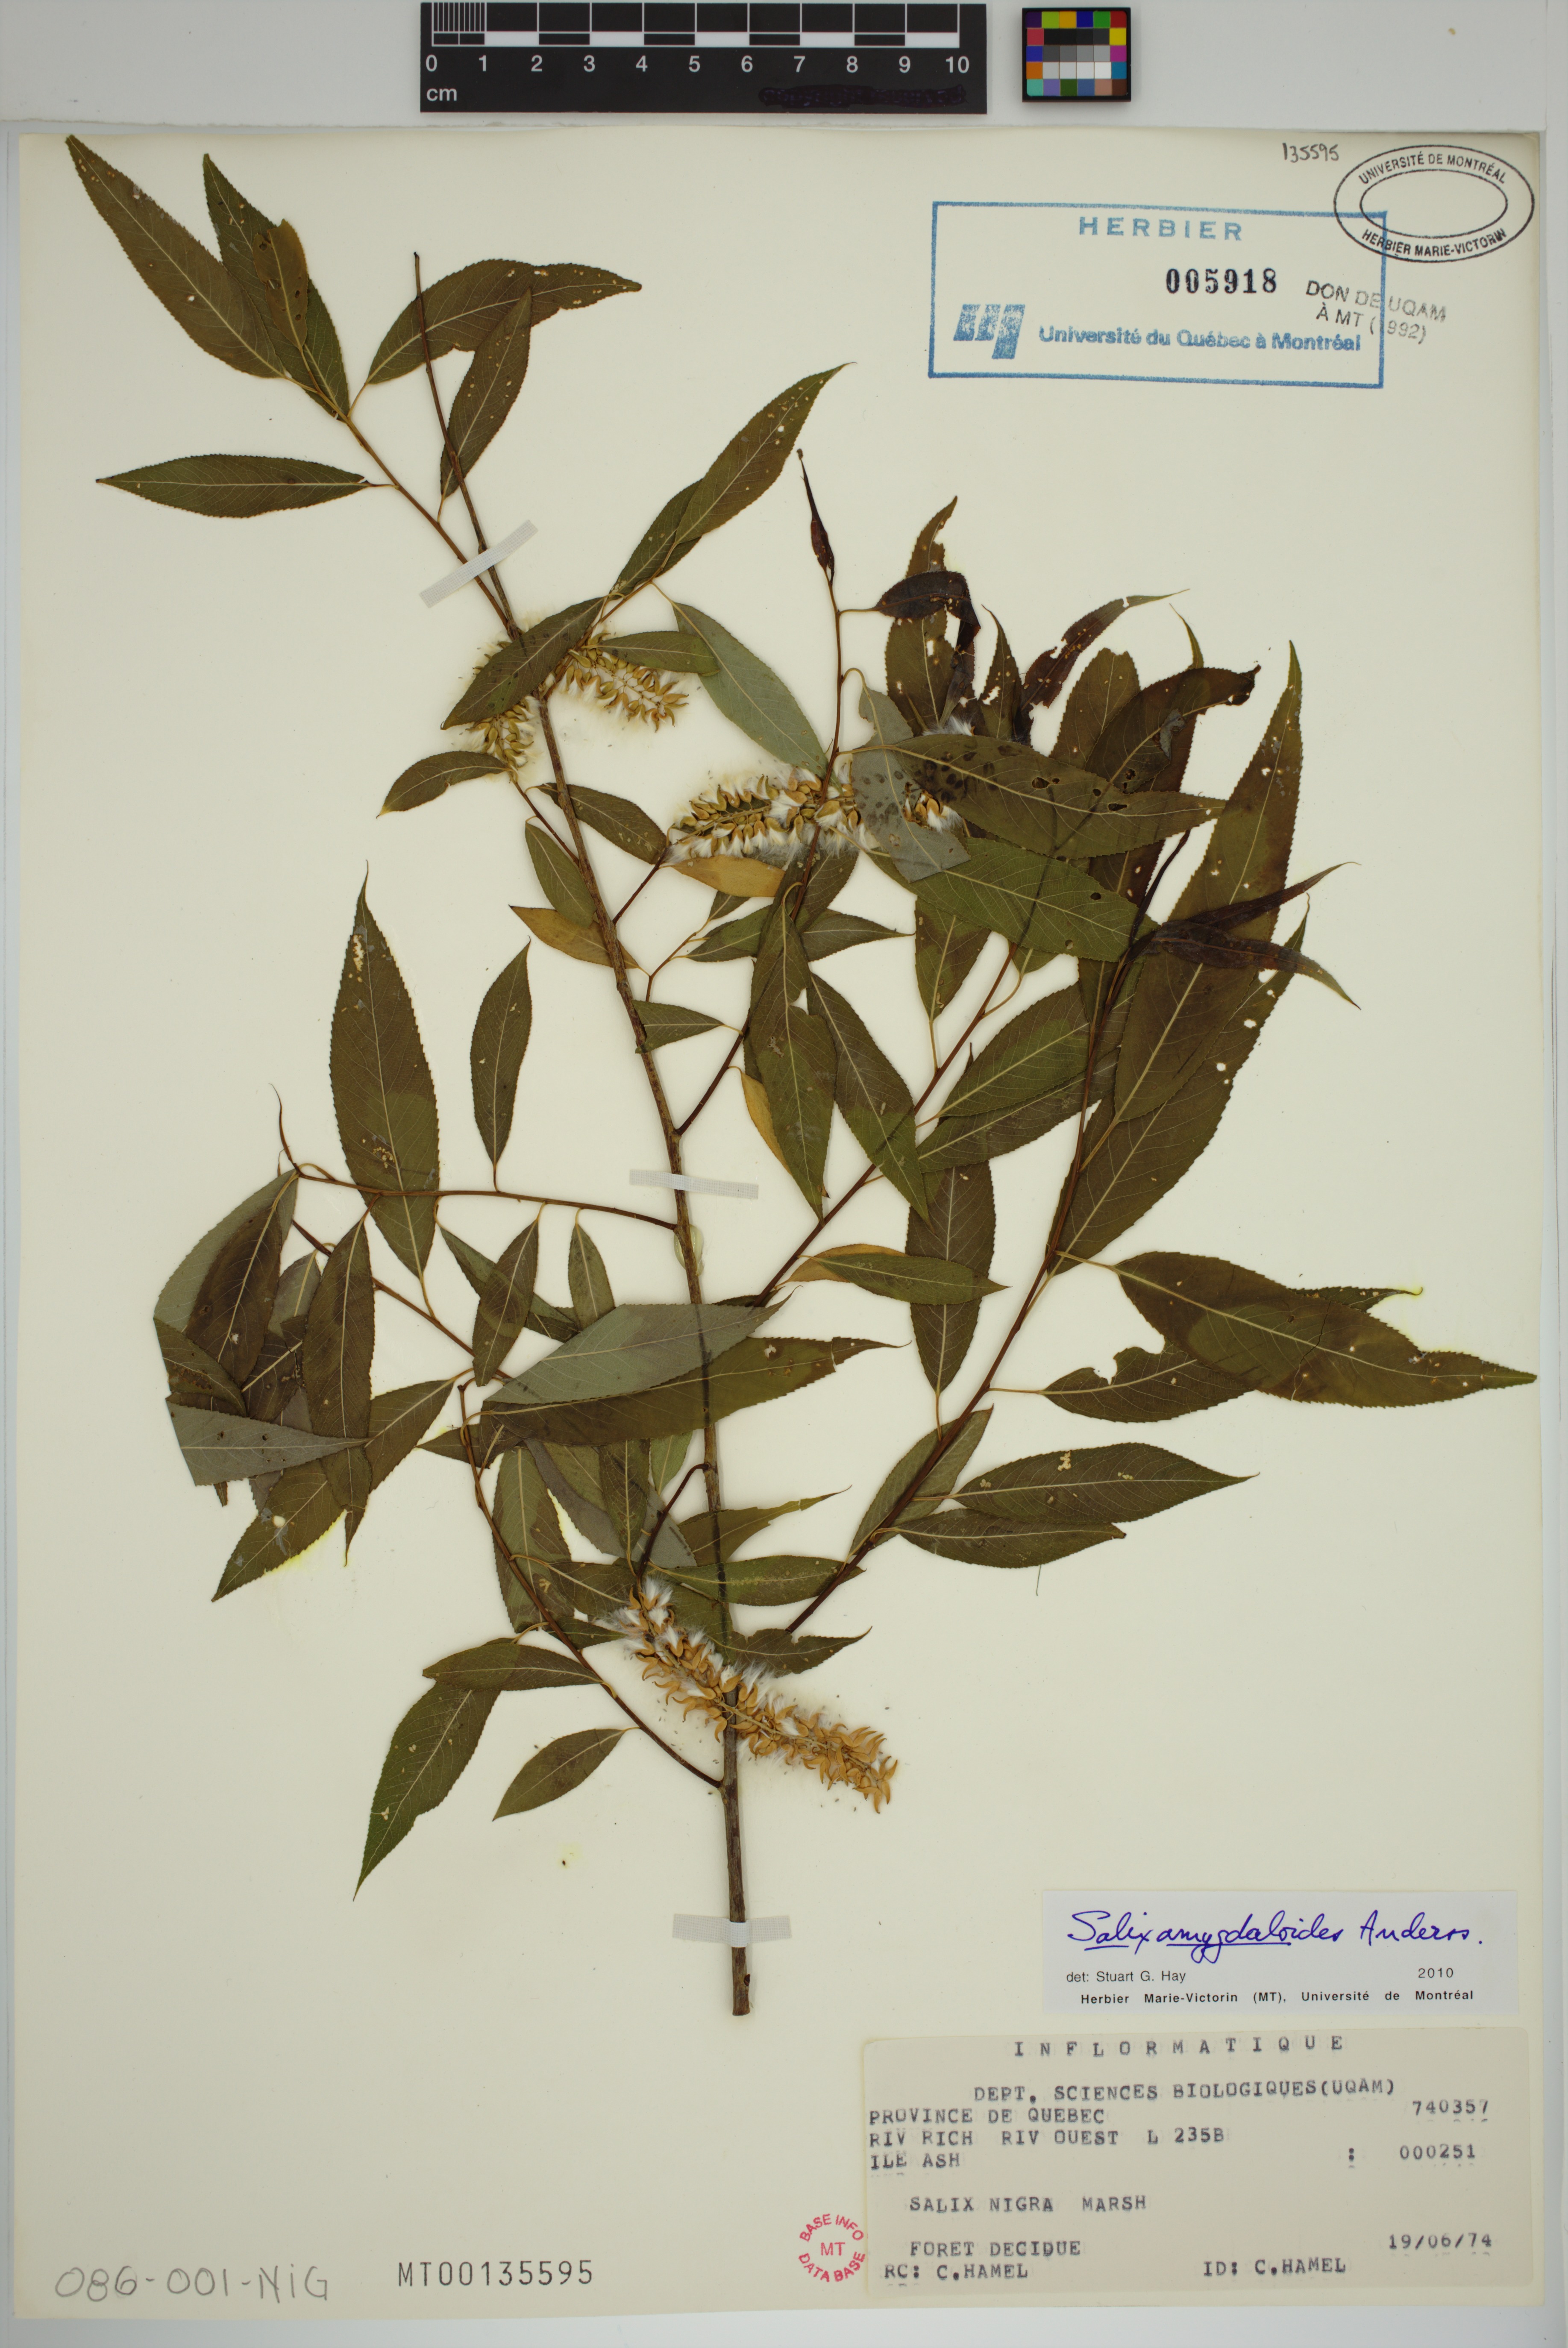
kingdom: Plantae
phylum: Tracheophyta
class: Magnoliopsida
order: Malpighiales
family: Salicaceae
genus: Salix
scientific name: Salix amygdaloides
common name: Peach leaf willow
